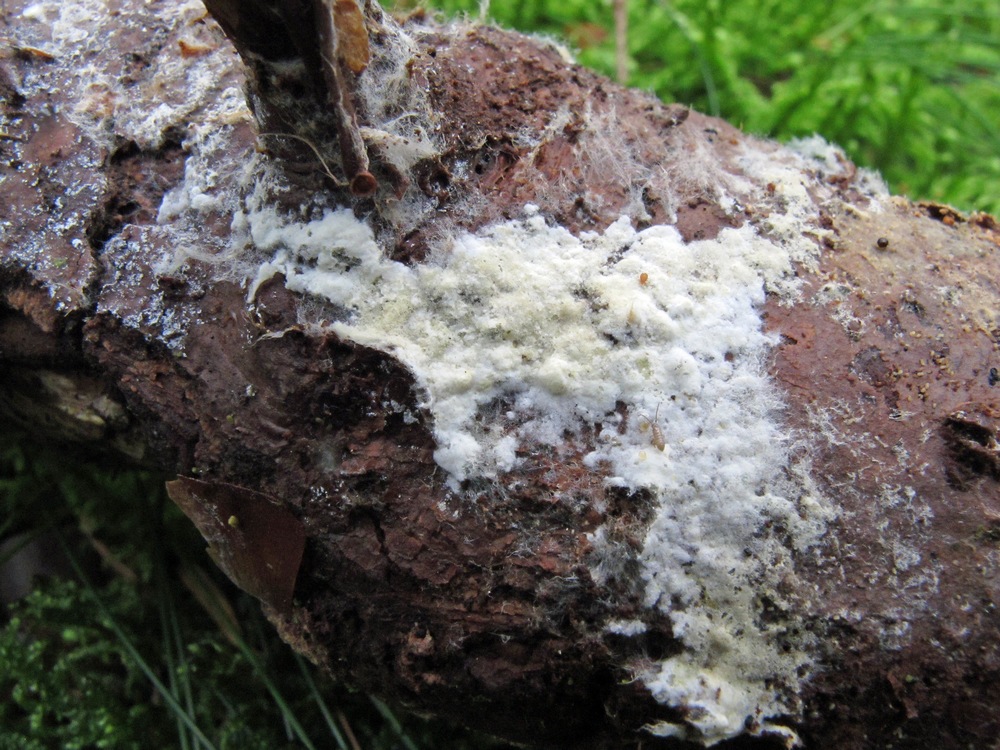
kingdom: Fungi
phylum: Basidiomycota
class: Agaricomycetes
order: Atheliales
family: Atheliaceae
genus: Amphinema
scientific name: Amphinema byssoides
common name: almindelig rodhinde
